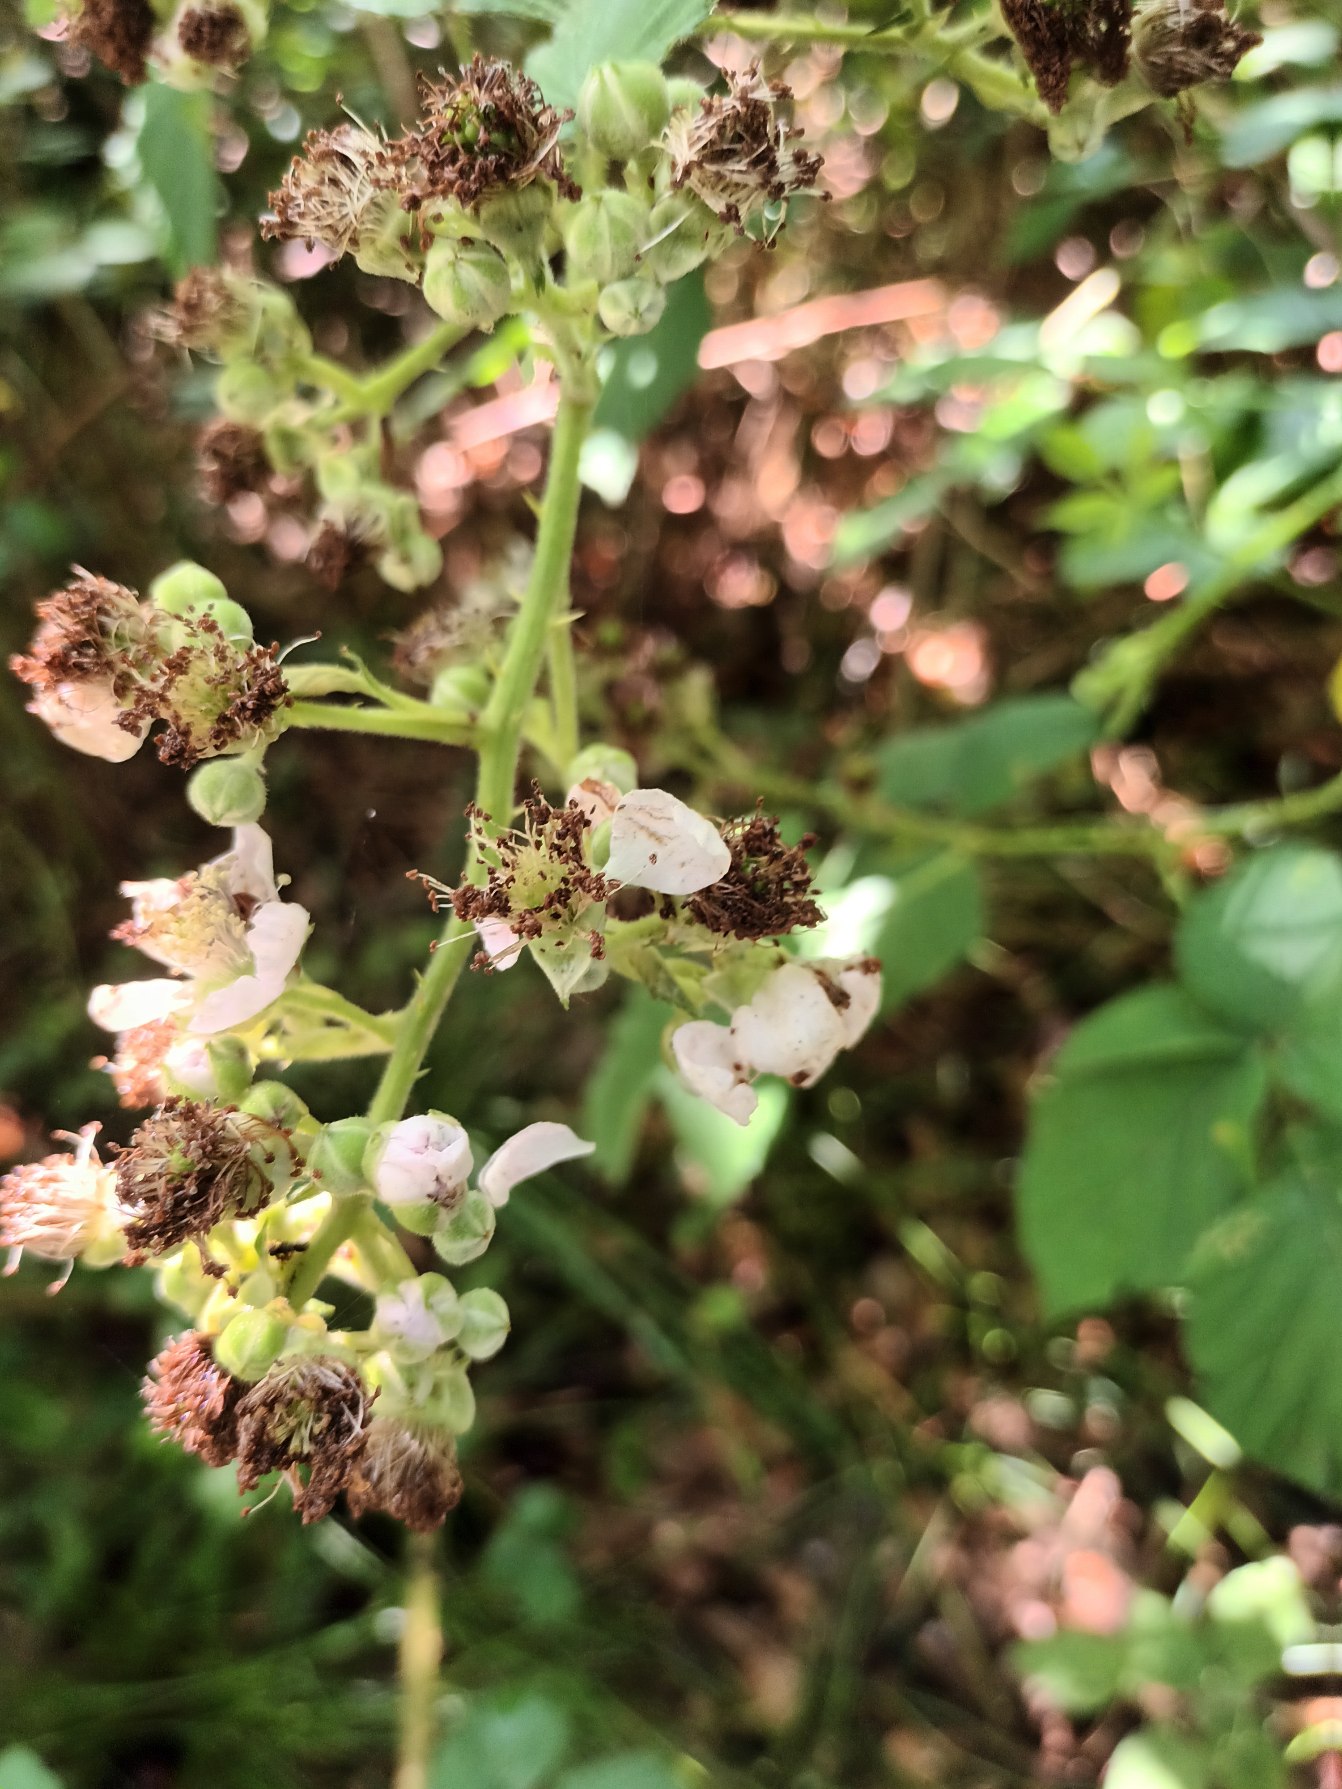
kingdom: Plantae
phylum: Tracheophyta
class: Magnoliopsida
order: Rosales
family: Rosaceae
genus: Rubus
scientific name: Rubus cardiophyllus
